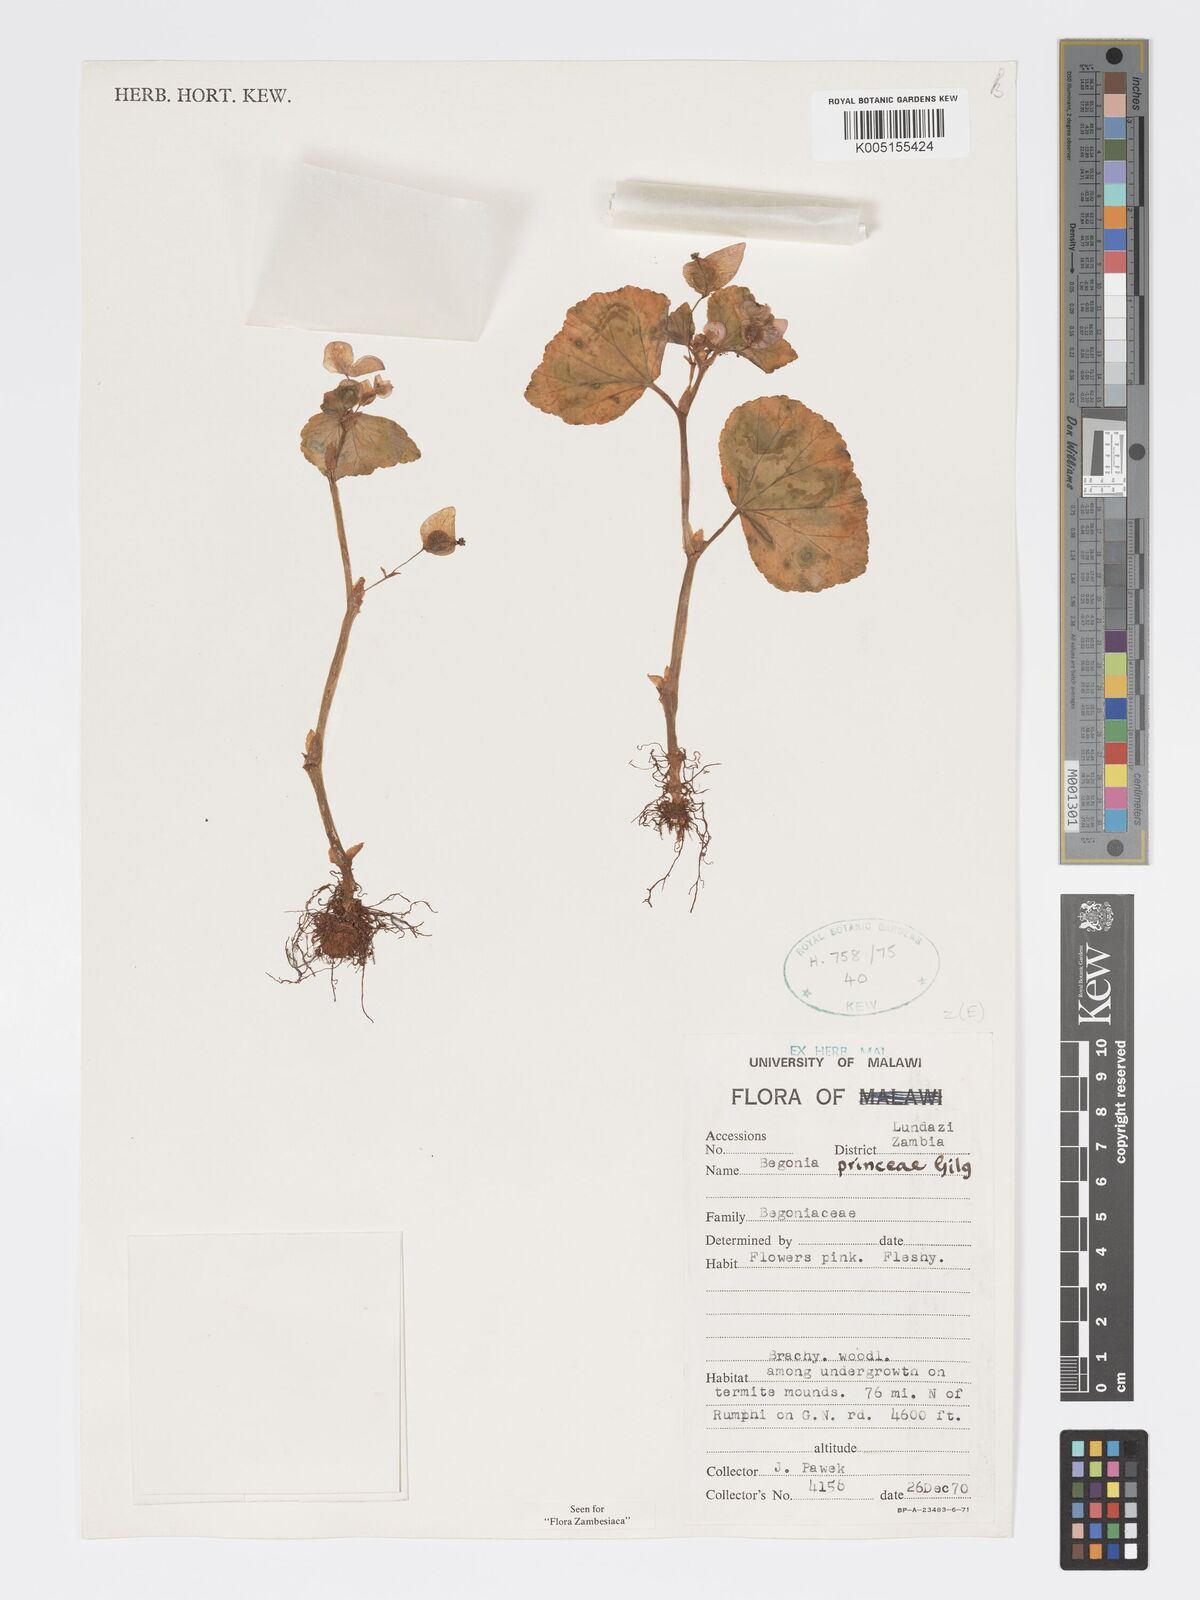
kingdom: Plantae
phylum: Tracheophyta
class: Magnoliopsida
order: Cucurbitales
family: Begoniaceae
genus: Begonia
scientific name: Begonia princeae
